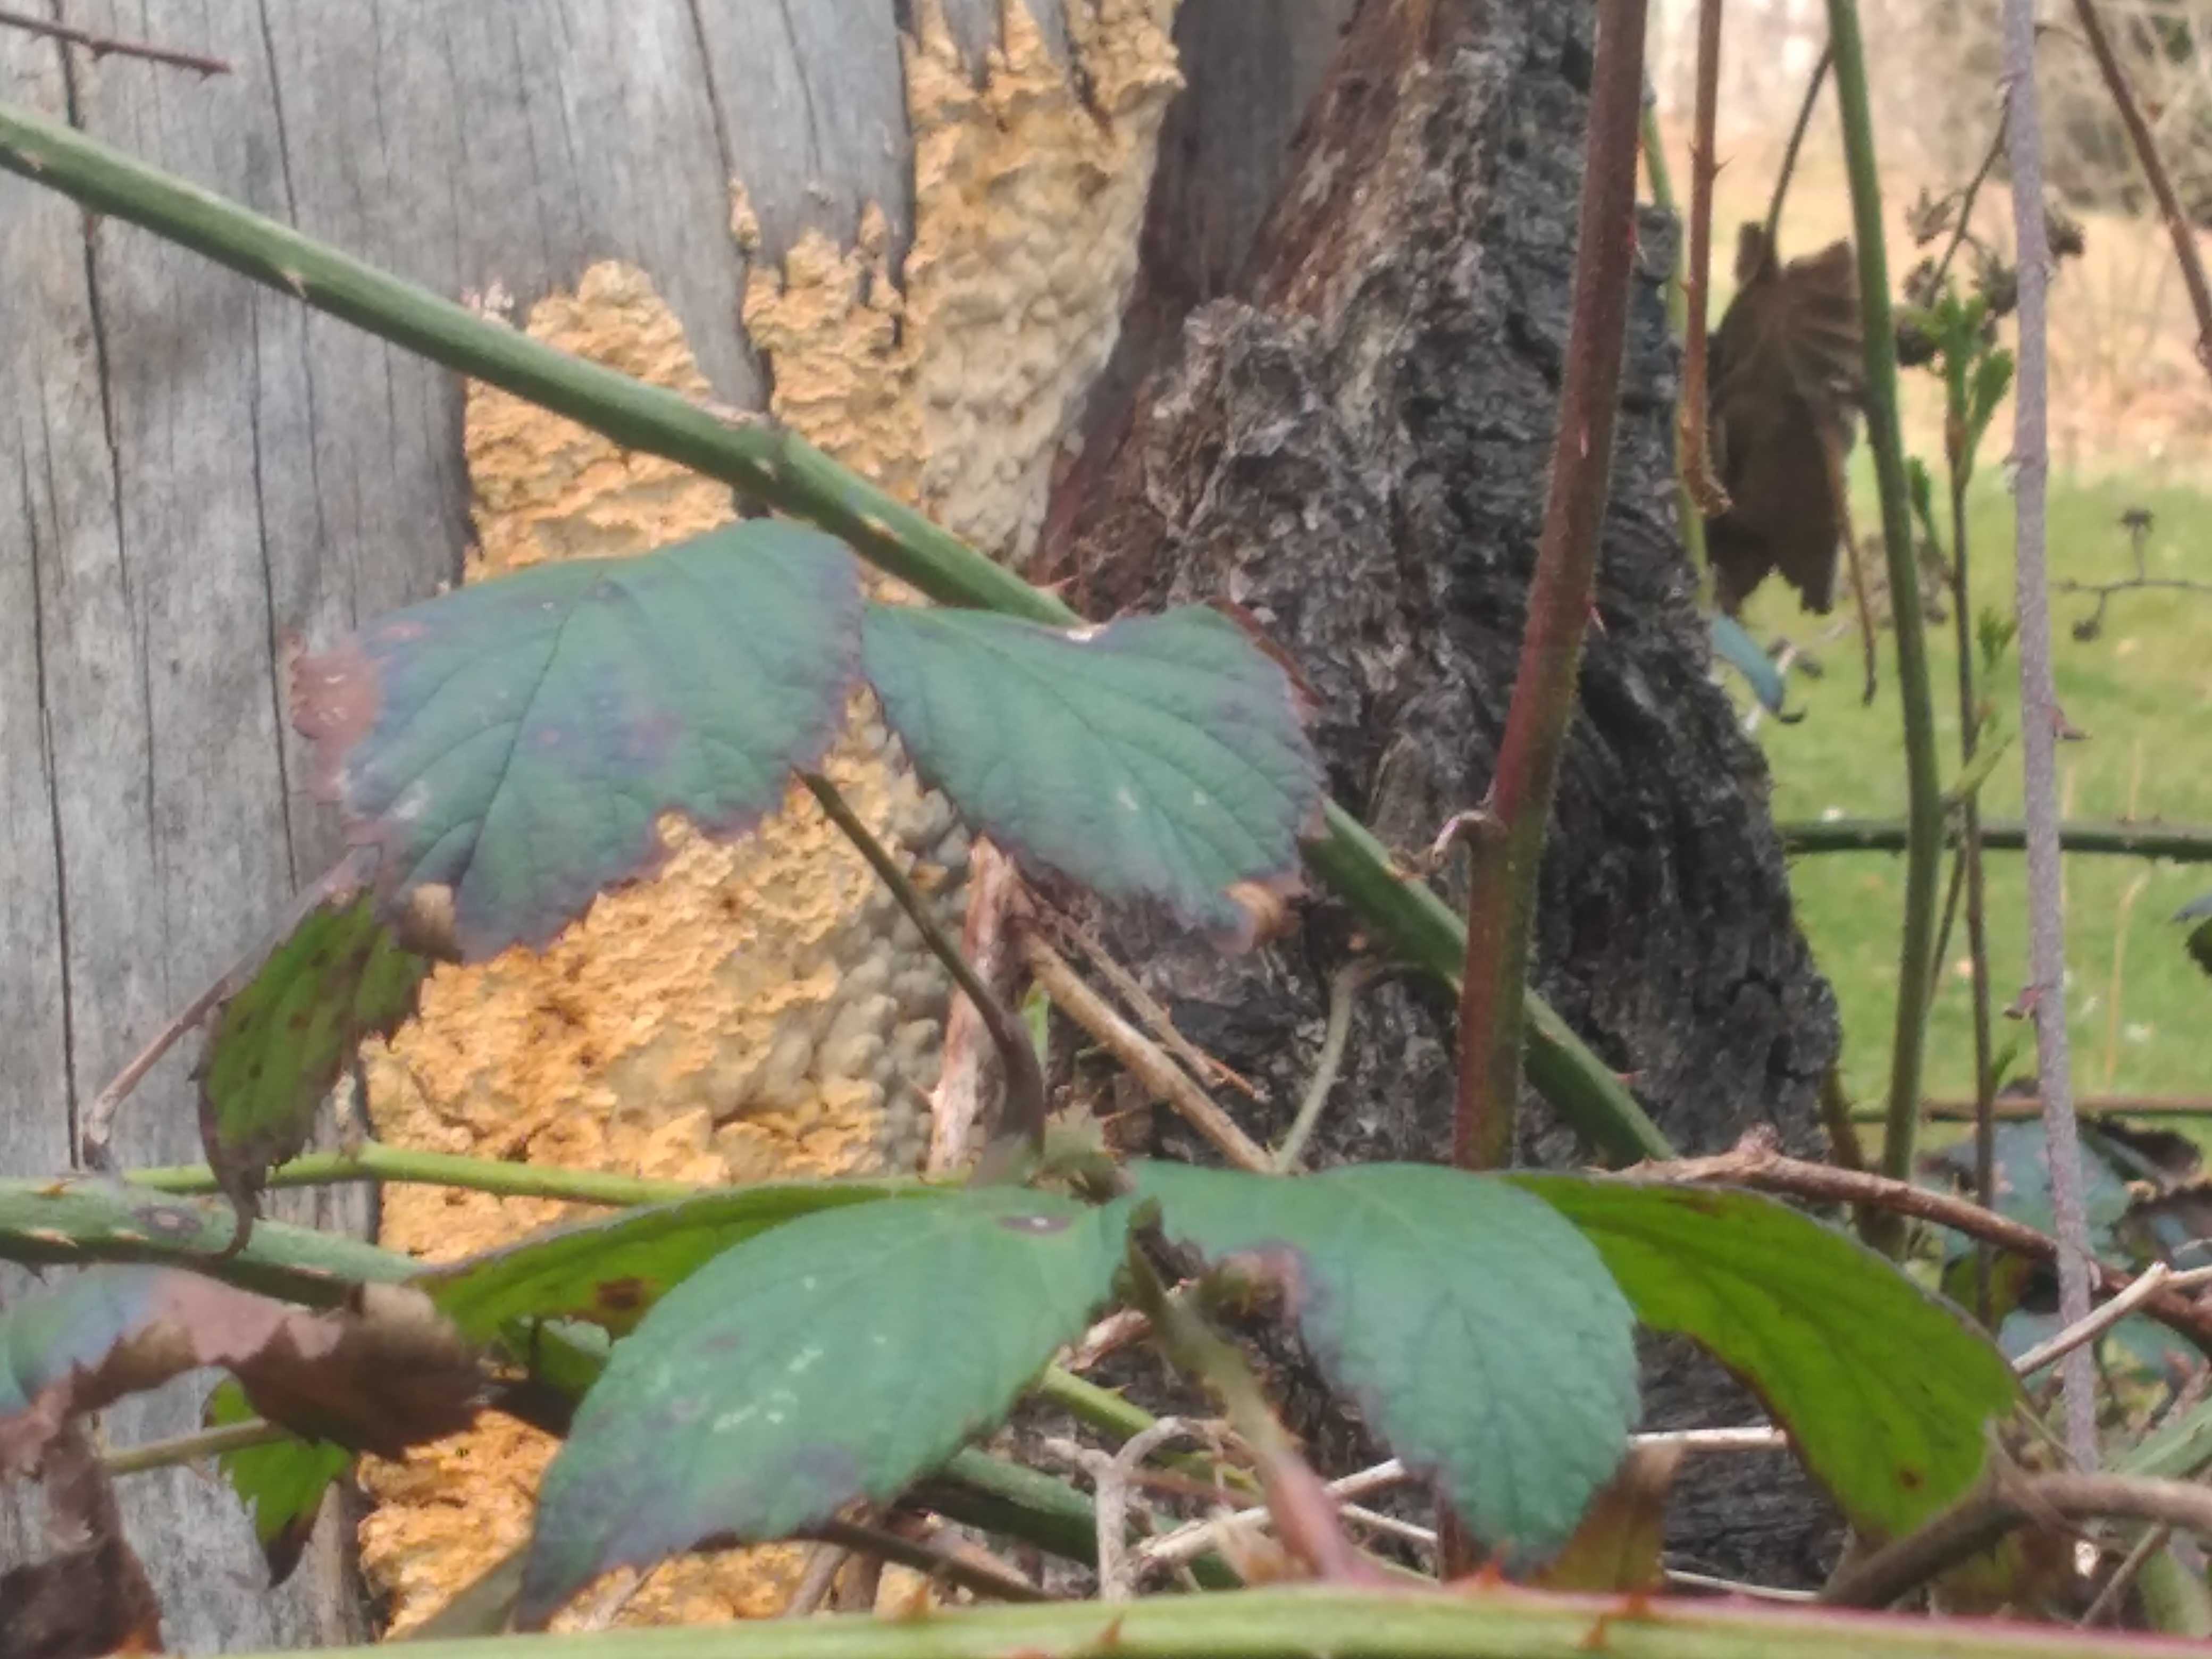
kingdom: Fungi
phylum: Basidiomycota
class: Agaricomycetes
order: Polyporales
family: Fomitopsidaceae
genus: Neoantrodia
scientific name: Neoantrodia serialis
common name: række-sejporesvamp
